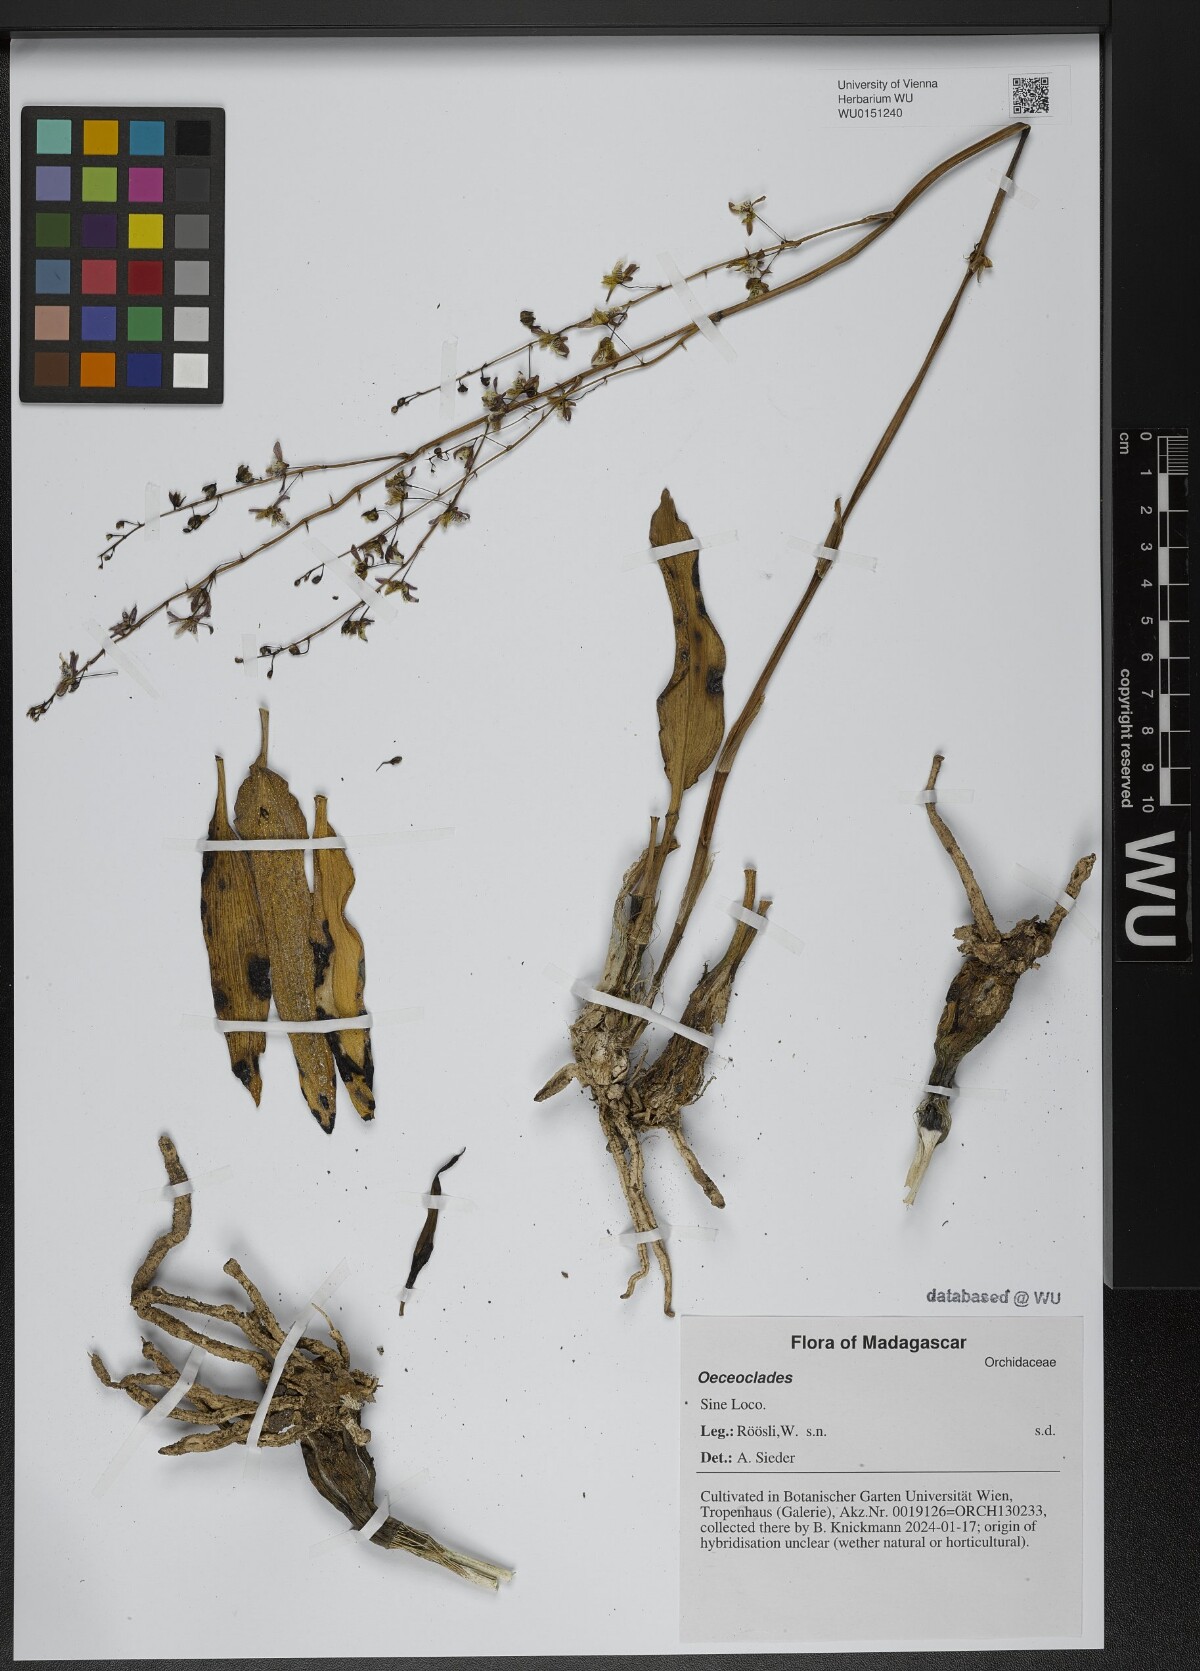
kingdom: Plantae
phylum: Tracheophyta
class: Liliopsida
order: Asparagales
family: Orchidaceae
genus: Eulophia
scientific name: Eulophia
